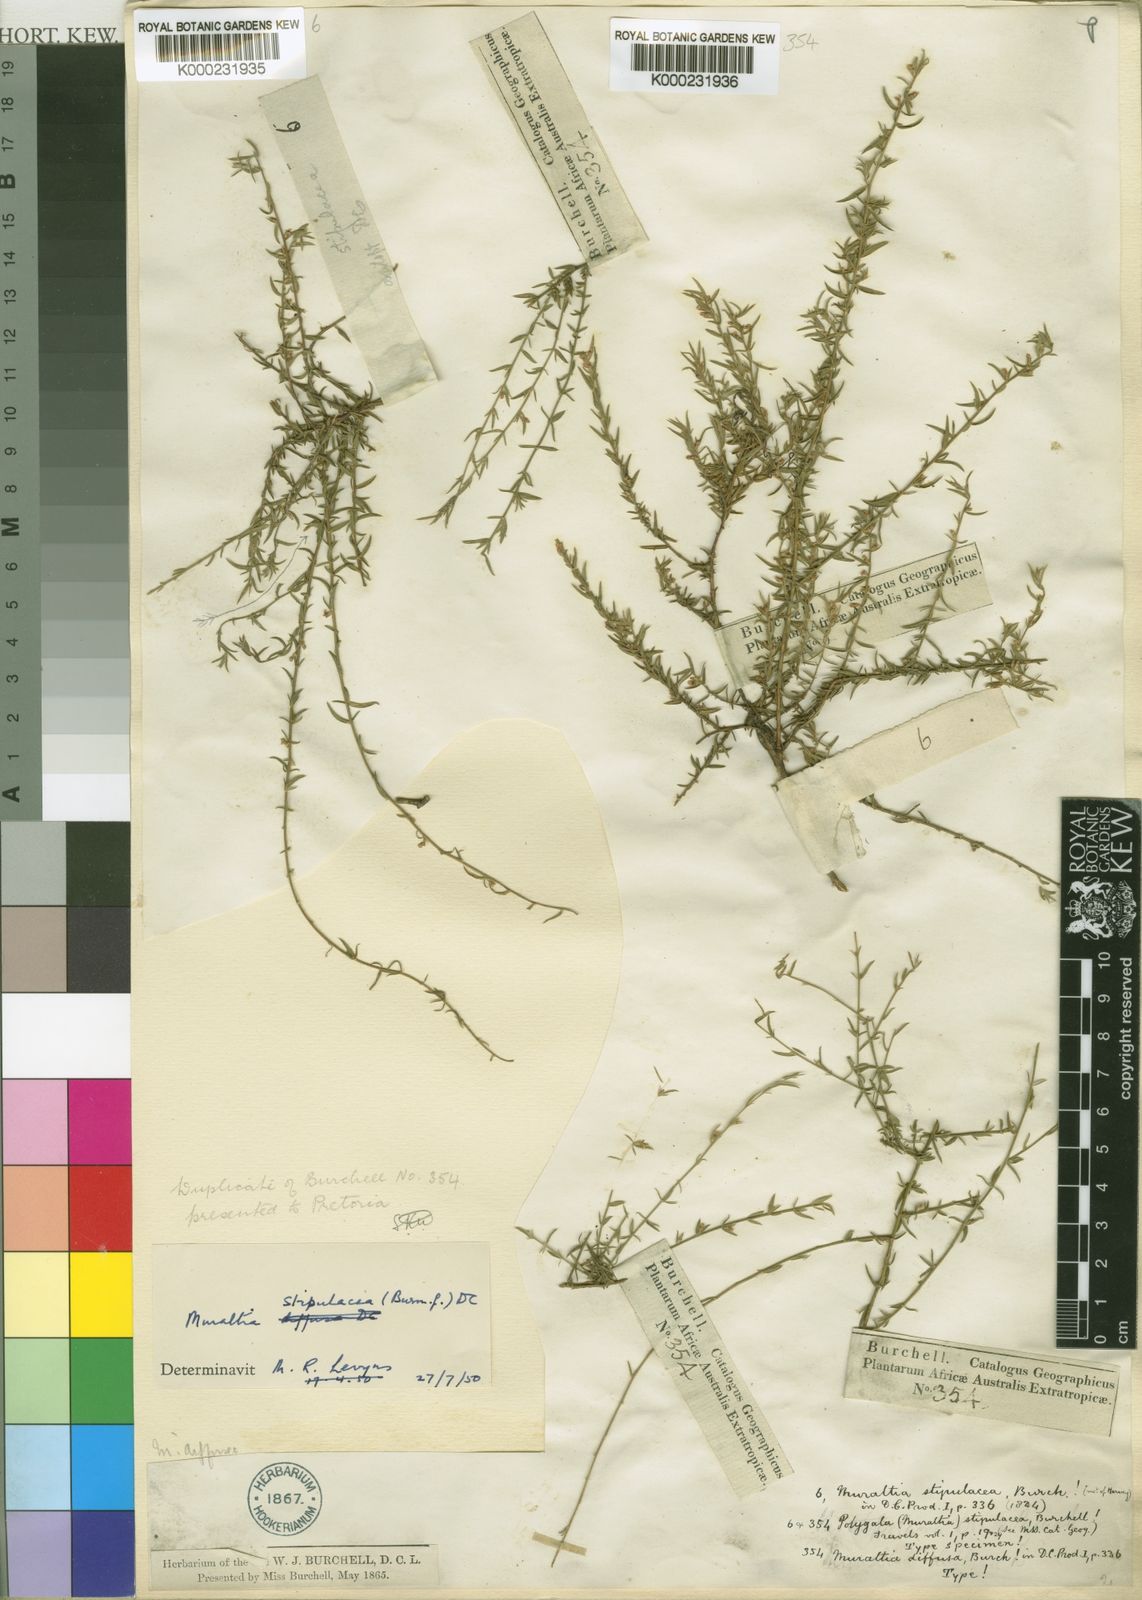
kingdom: Plantae
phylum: Tracheophyta
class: Magnoliopsida
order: Fabales
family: Polygalaceae
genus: Muraltia
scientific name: Muraltia stipulacea
